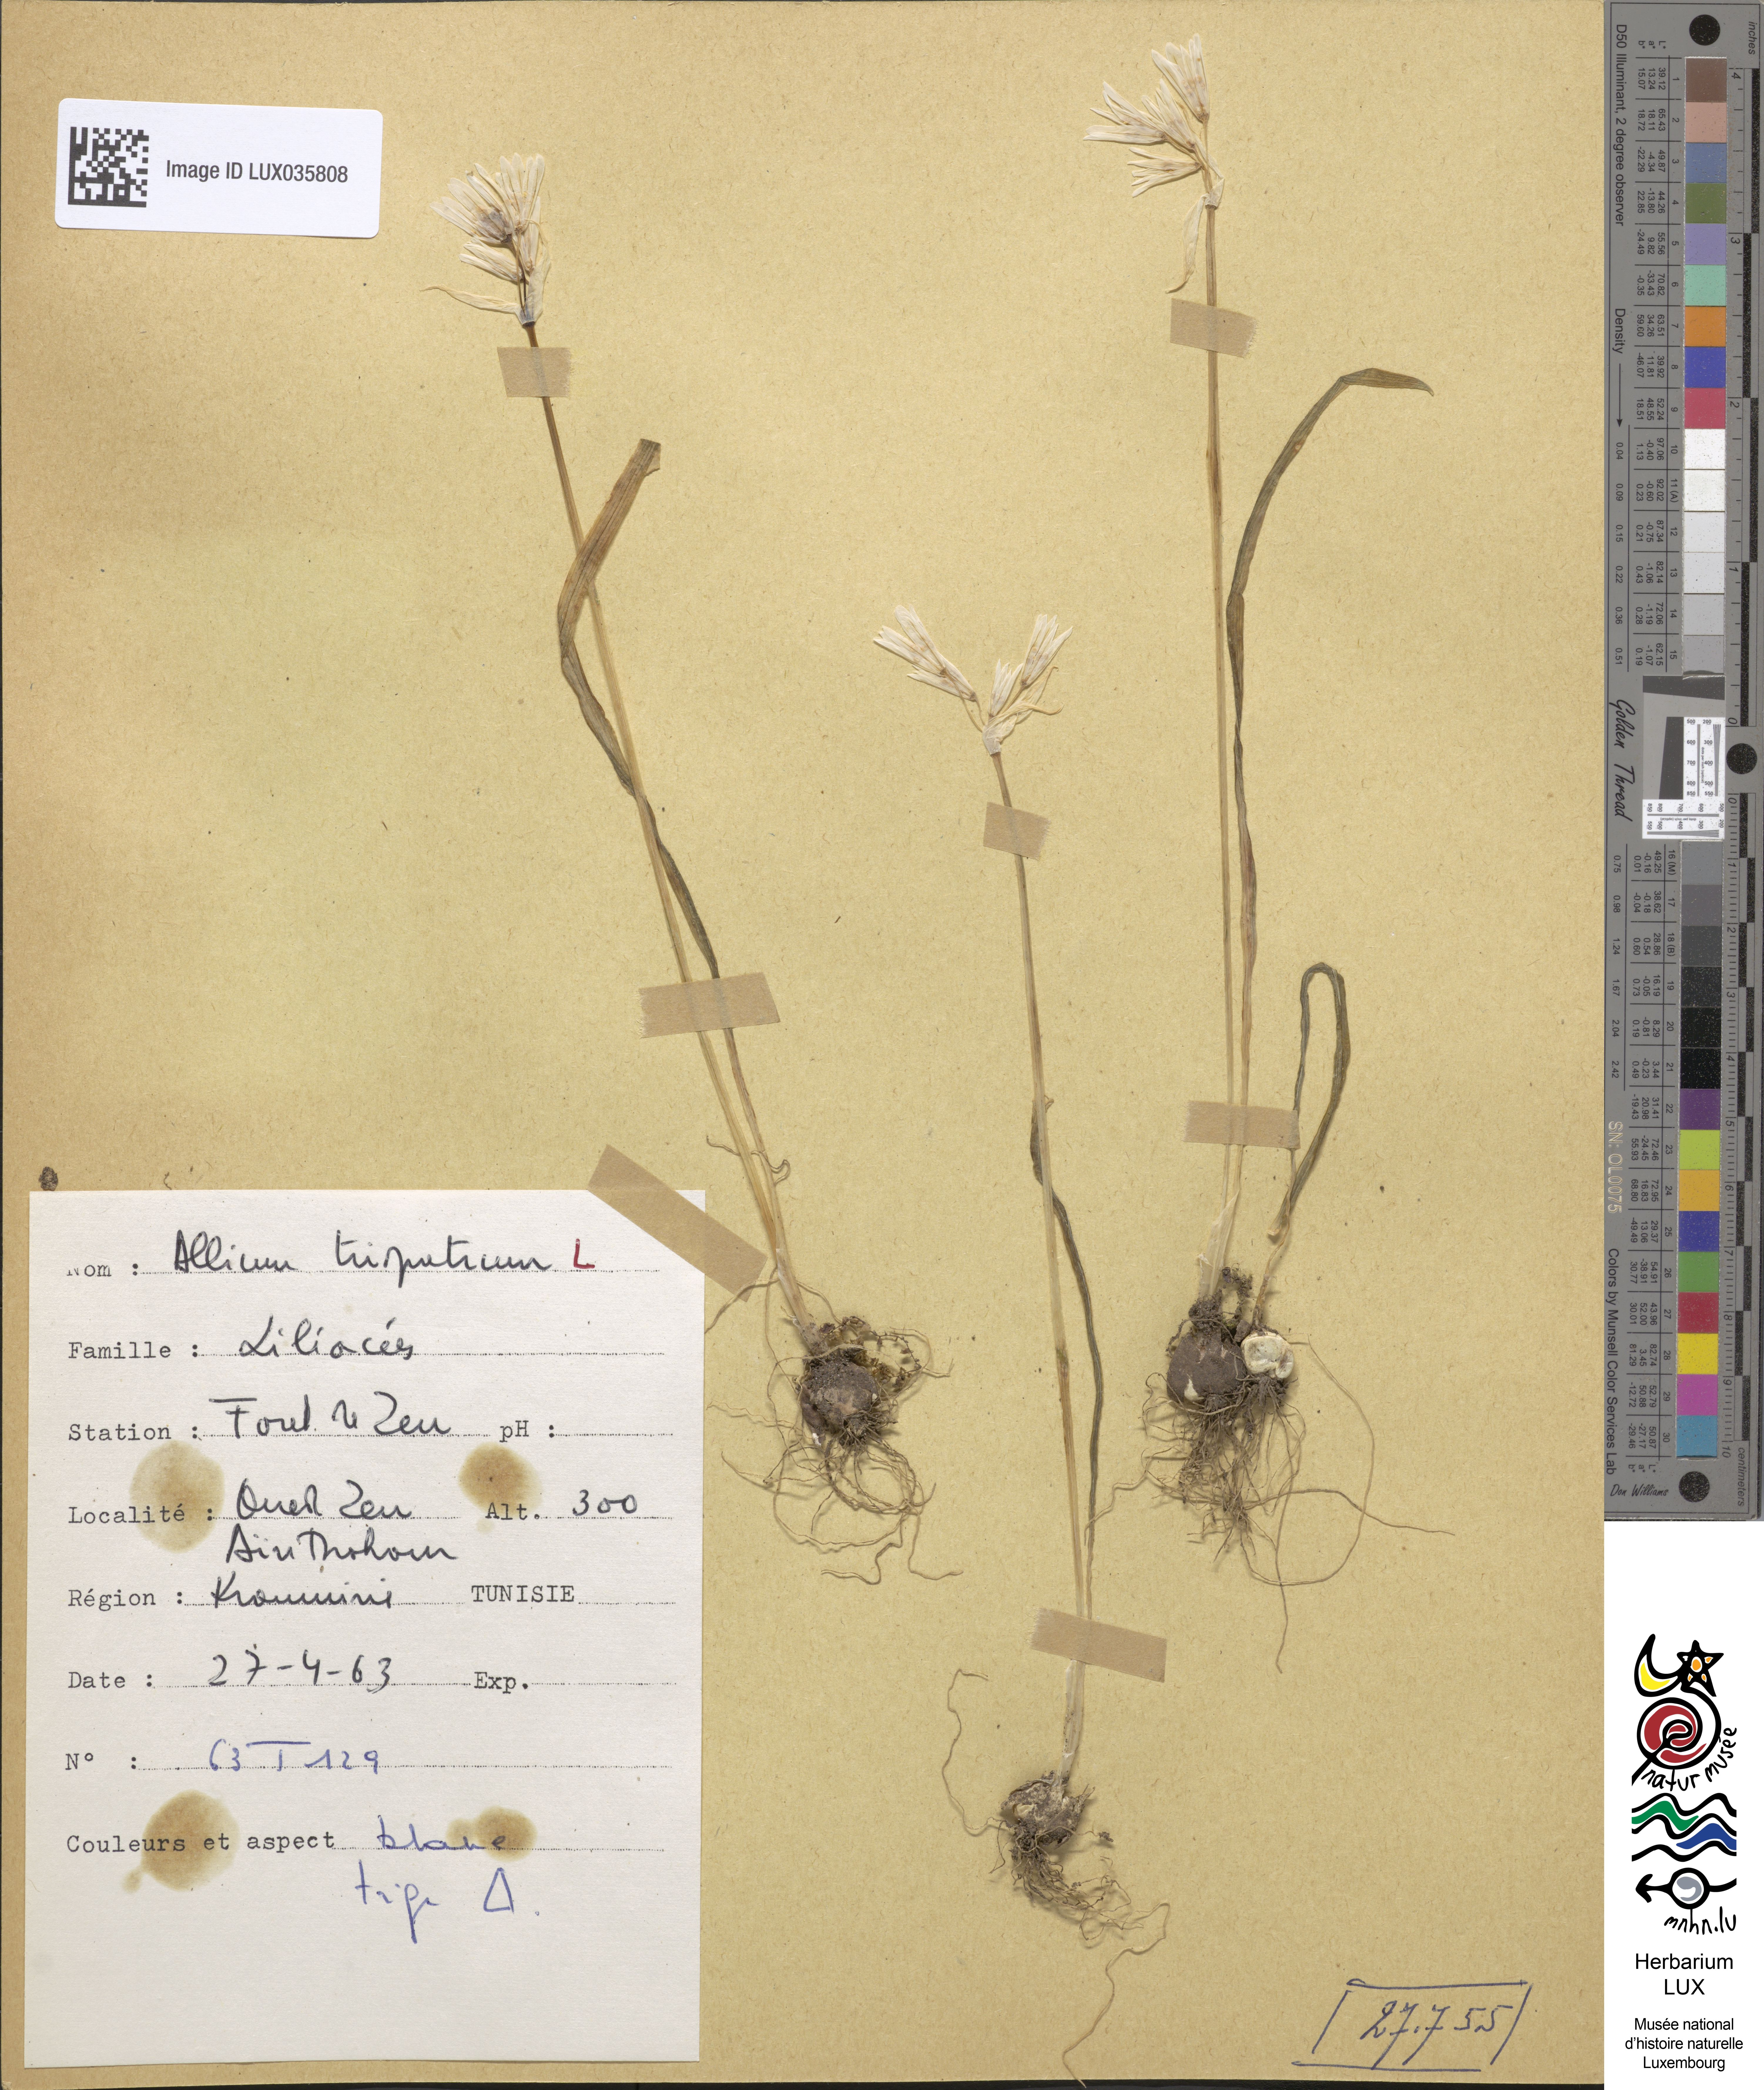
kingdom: Plantae
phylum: Tracheophyta
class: Liliopsida
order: Asparagales
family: Amaryllidaceae
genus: Allium
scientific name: Allium triquetrum
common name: Three-cornered garlic
